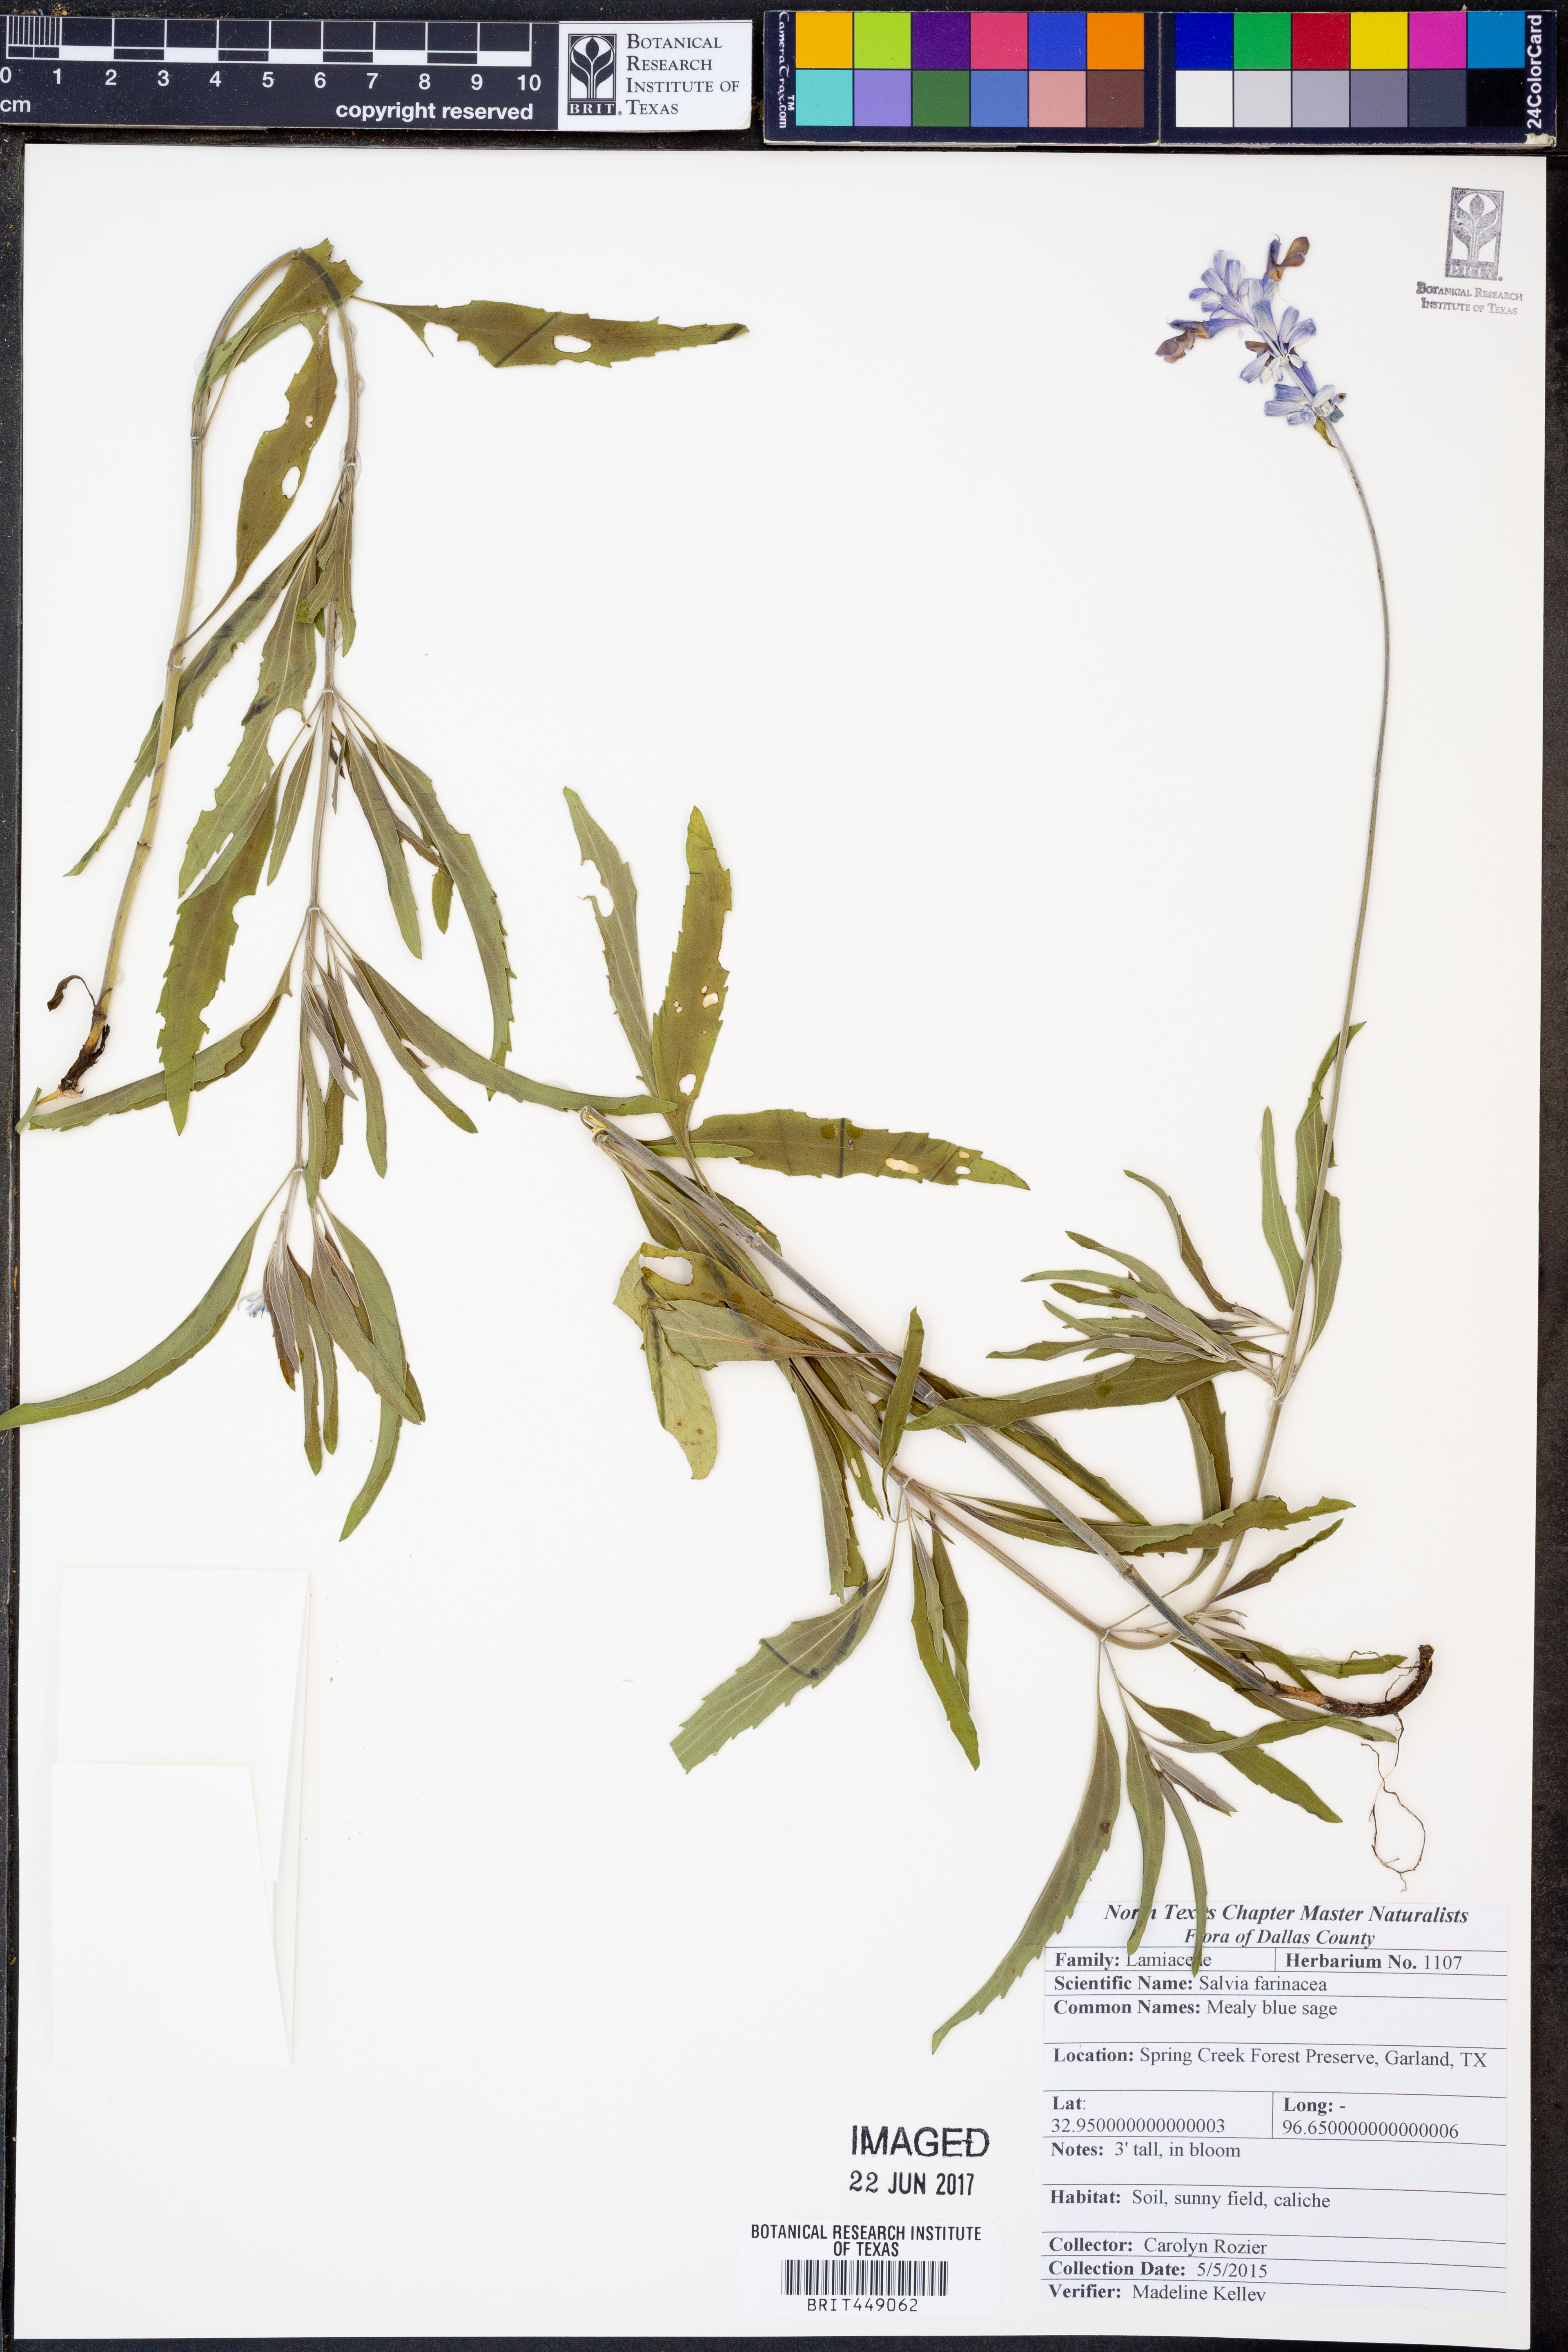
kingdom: Plantae
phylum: Tracheophyta
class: Magnoliopsida
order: Lamiales
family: Lamiaceae
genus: Salvia
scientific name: Salvia farinacea
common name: Mealy sage
